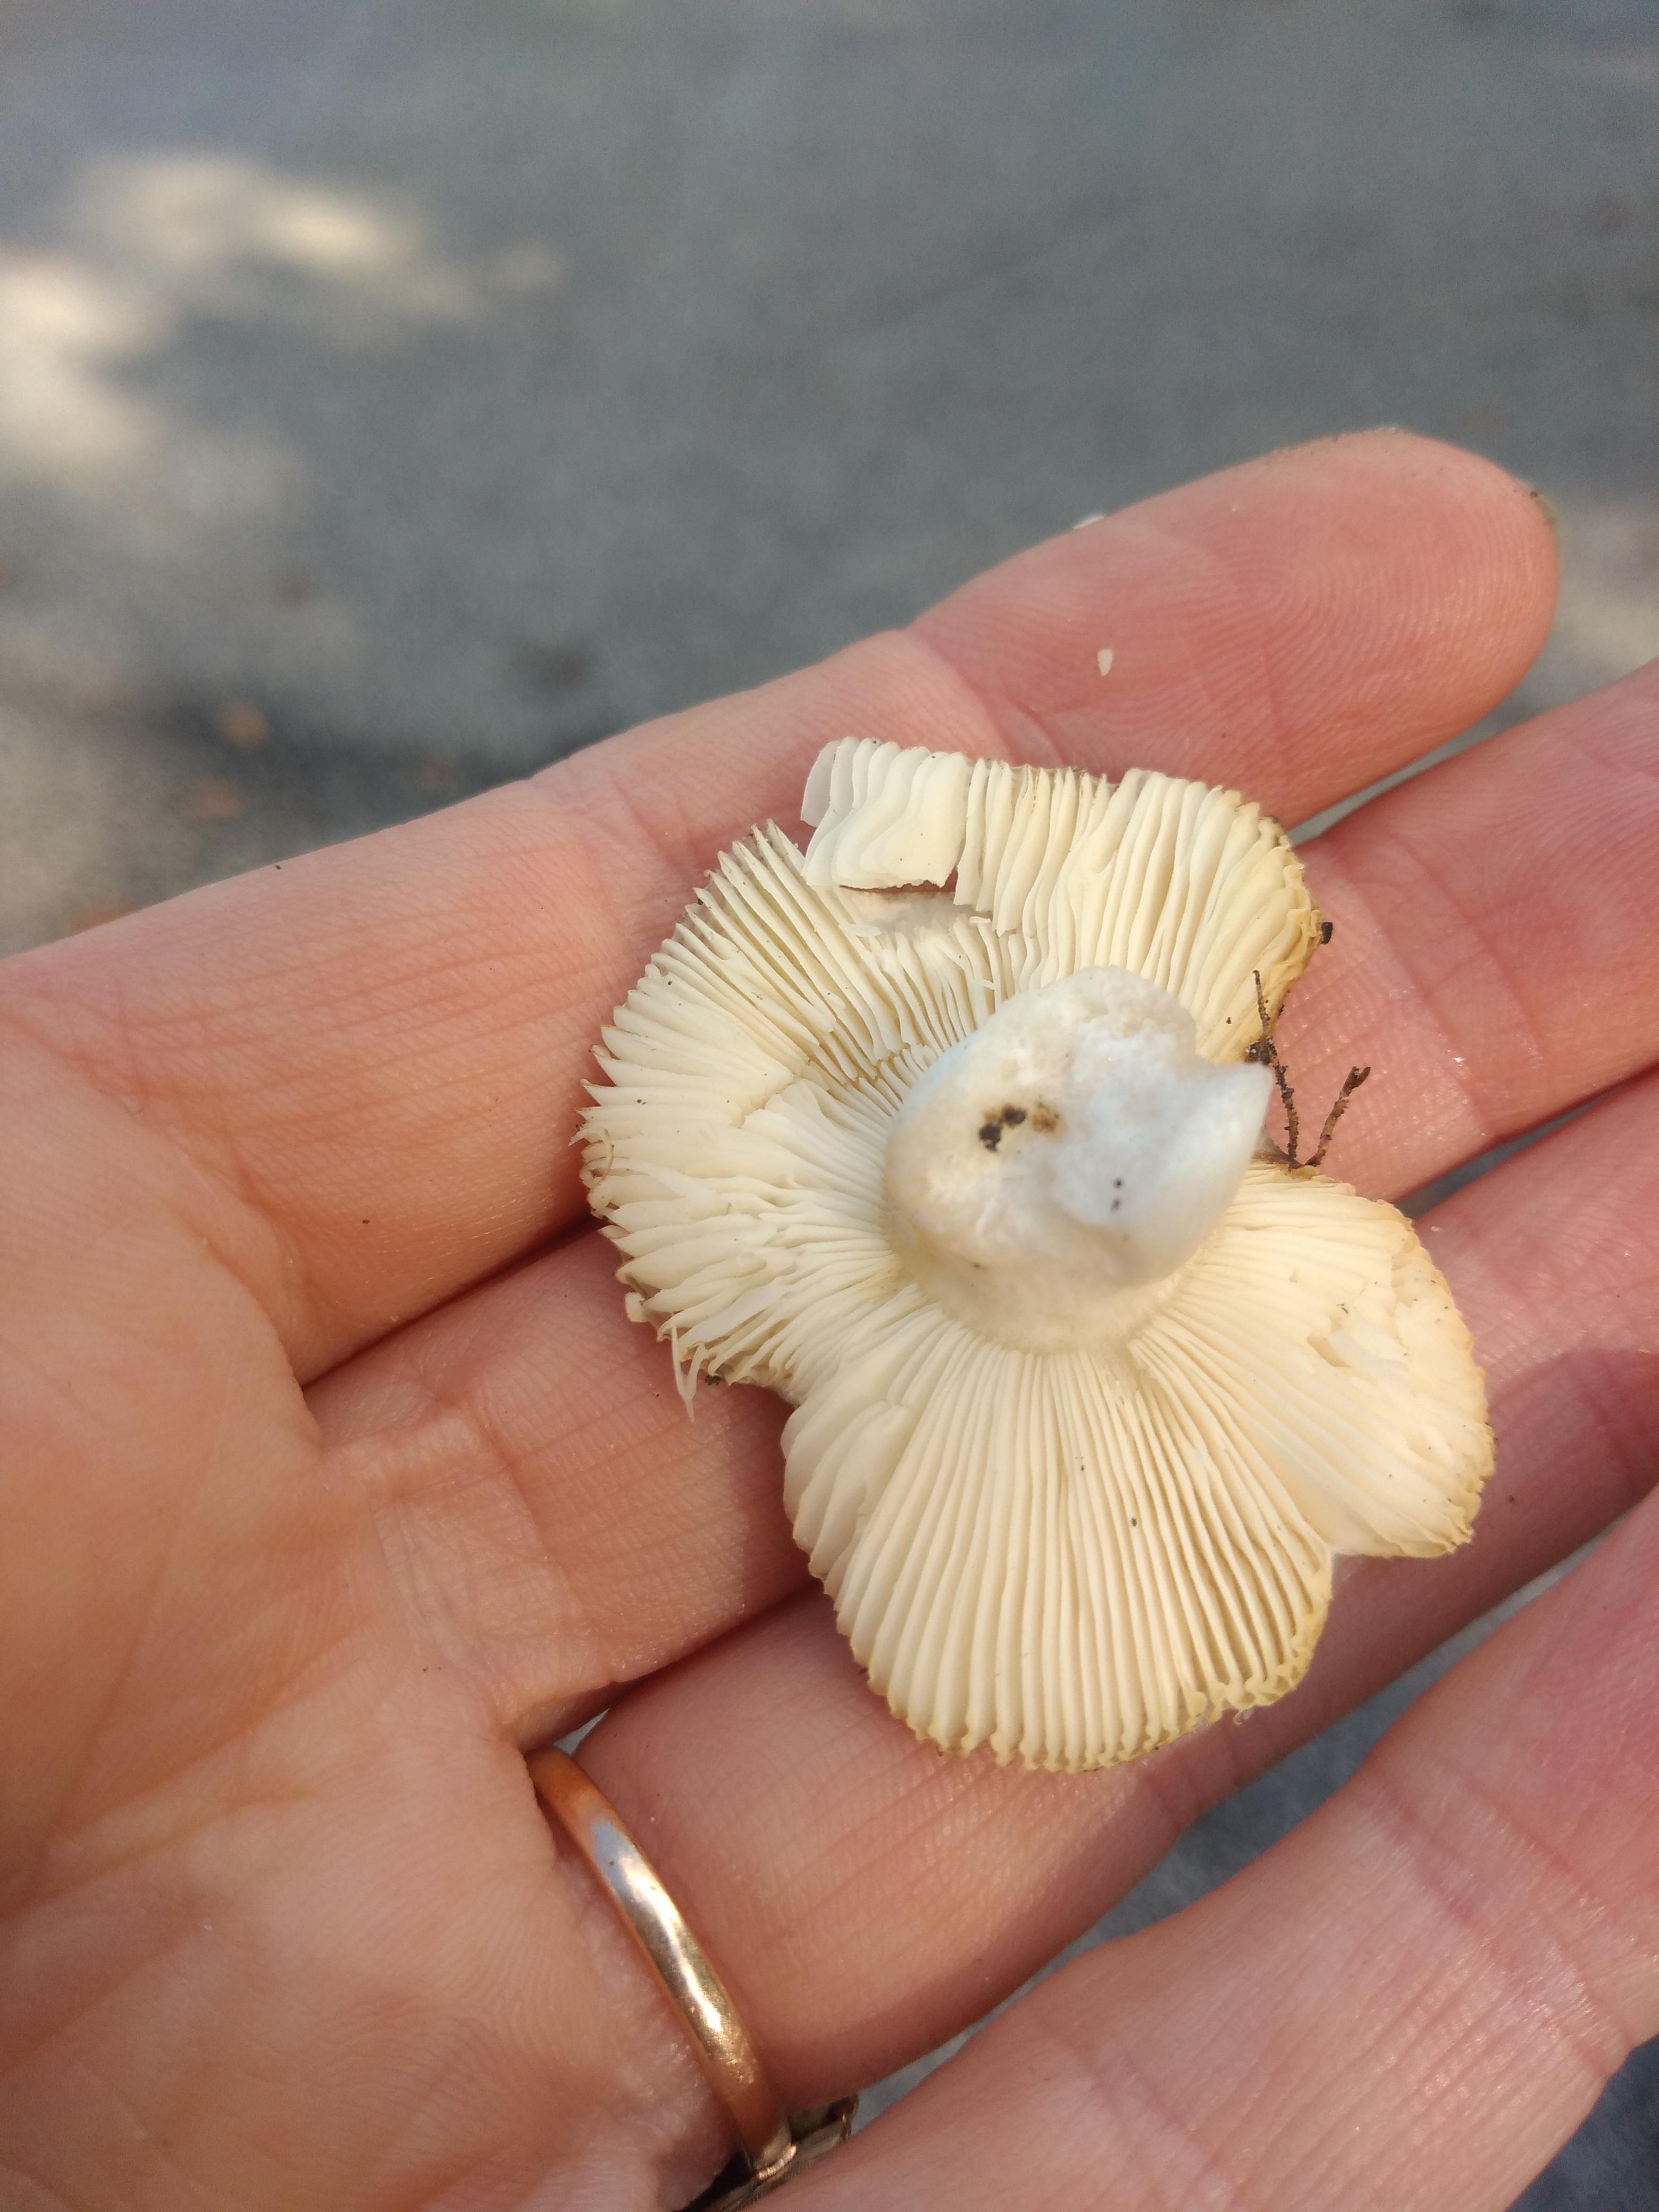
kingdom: Fungi
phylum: Basidiomycota
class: Agaricomycetes
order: Russulales
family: Russulaceae
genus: Russula
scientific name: Russula
